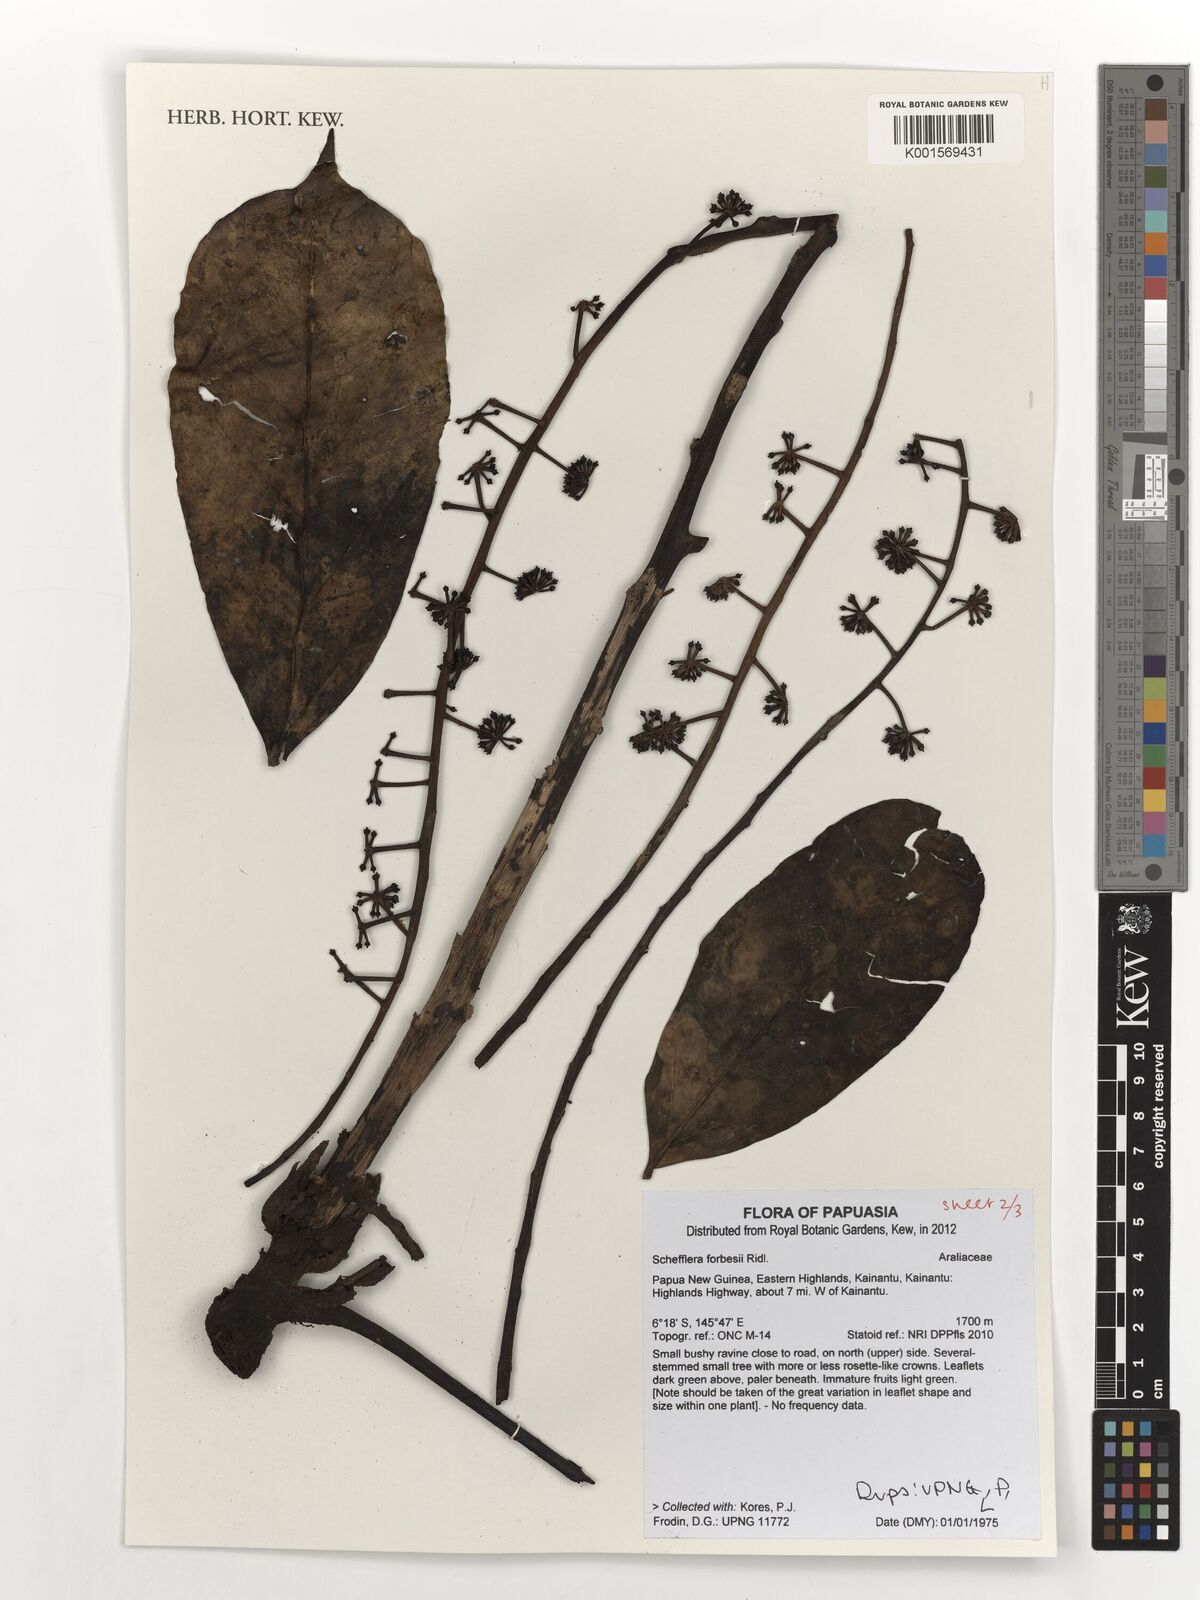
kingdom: Plantae
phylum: Tracheophyta
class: Magnoliopsida
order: Apiales
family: Araliaceae
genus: Heptapleurum
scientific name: Heptapleurum forbesii
